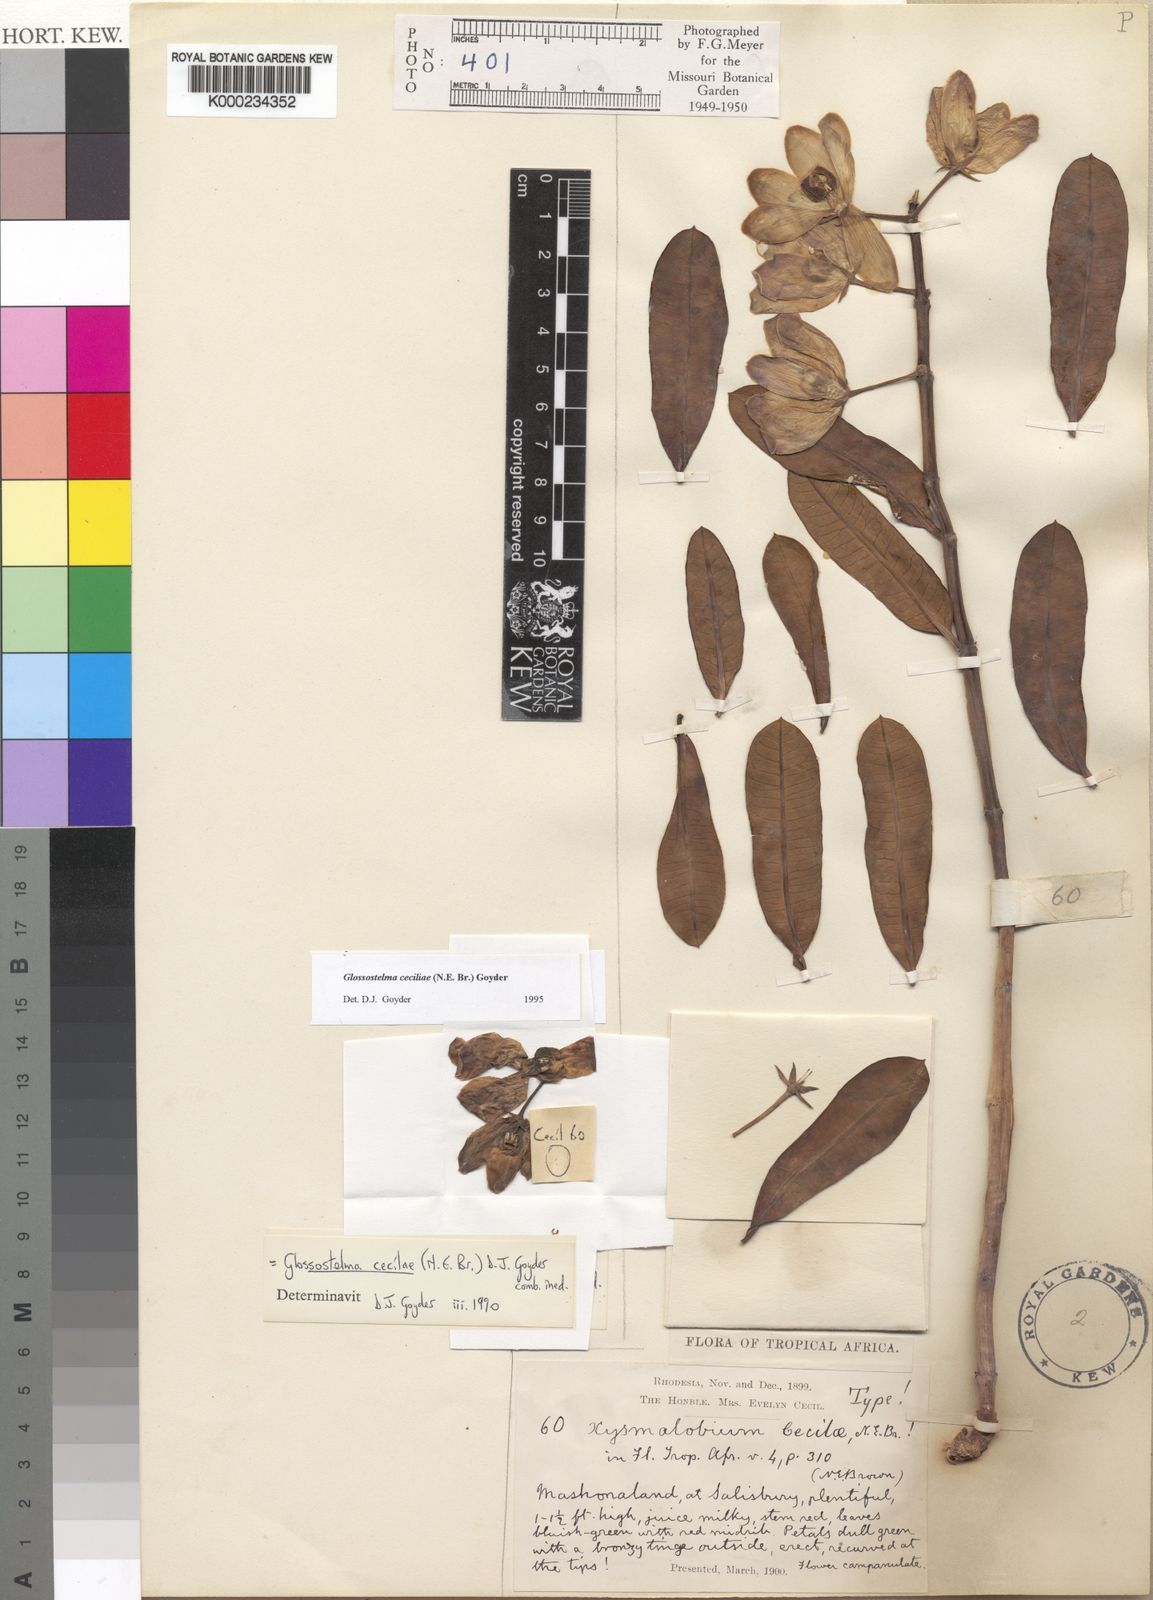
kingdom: Plantae
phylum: Tracheophyta
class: Magnoliopsida
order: Gentianales
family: Apocynaceae
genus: Glossostelma
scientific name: Glossostelma ceciliae
